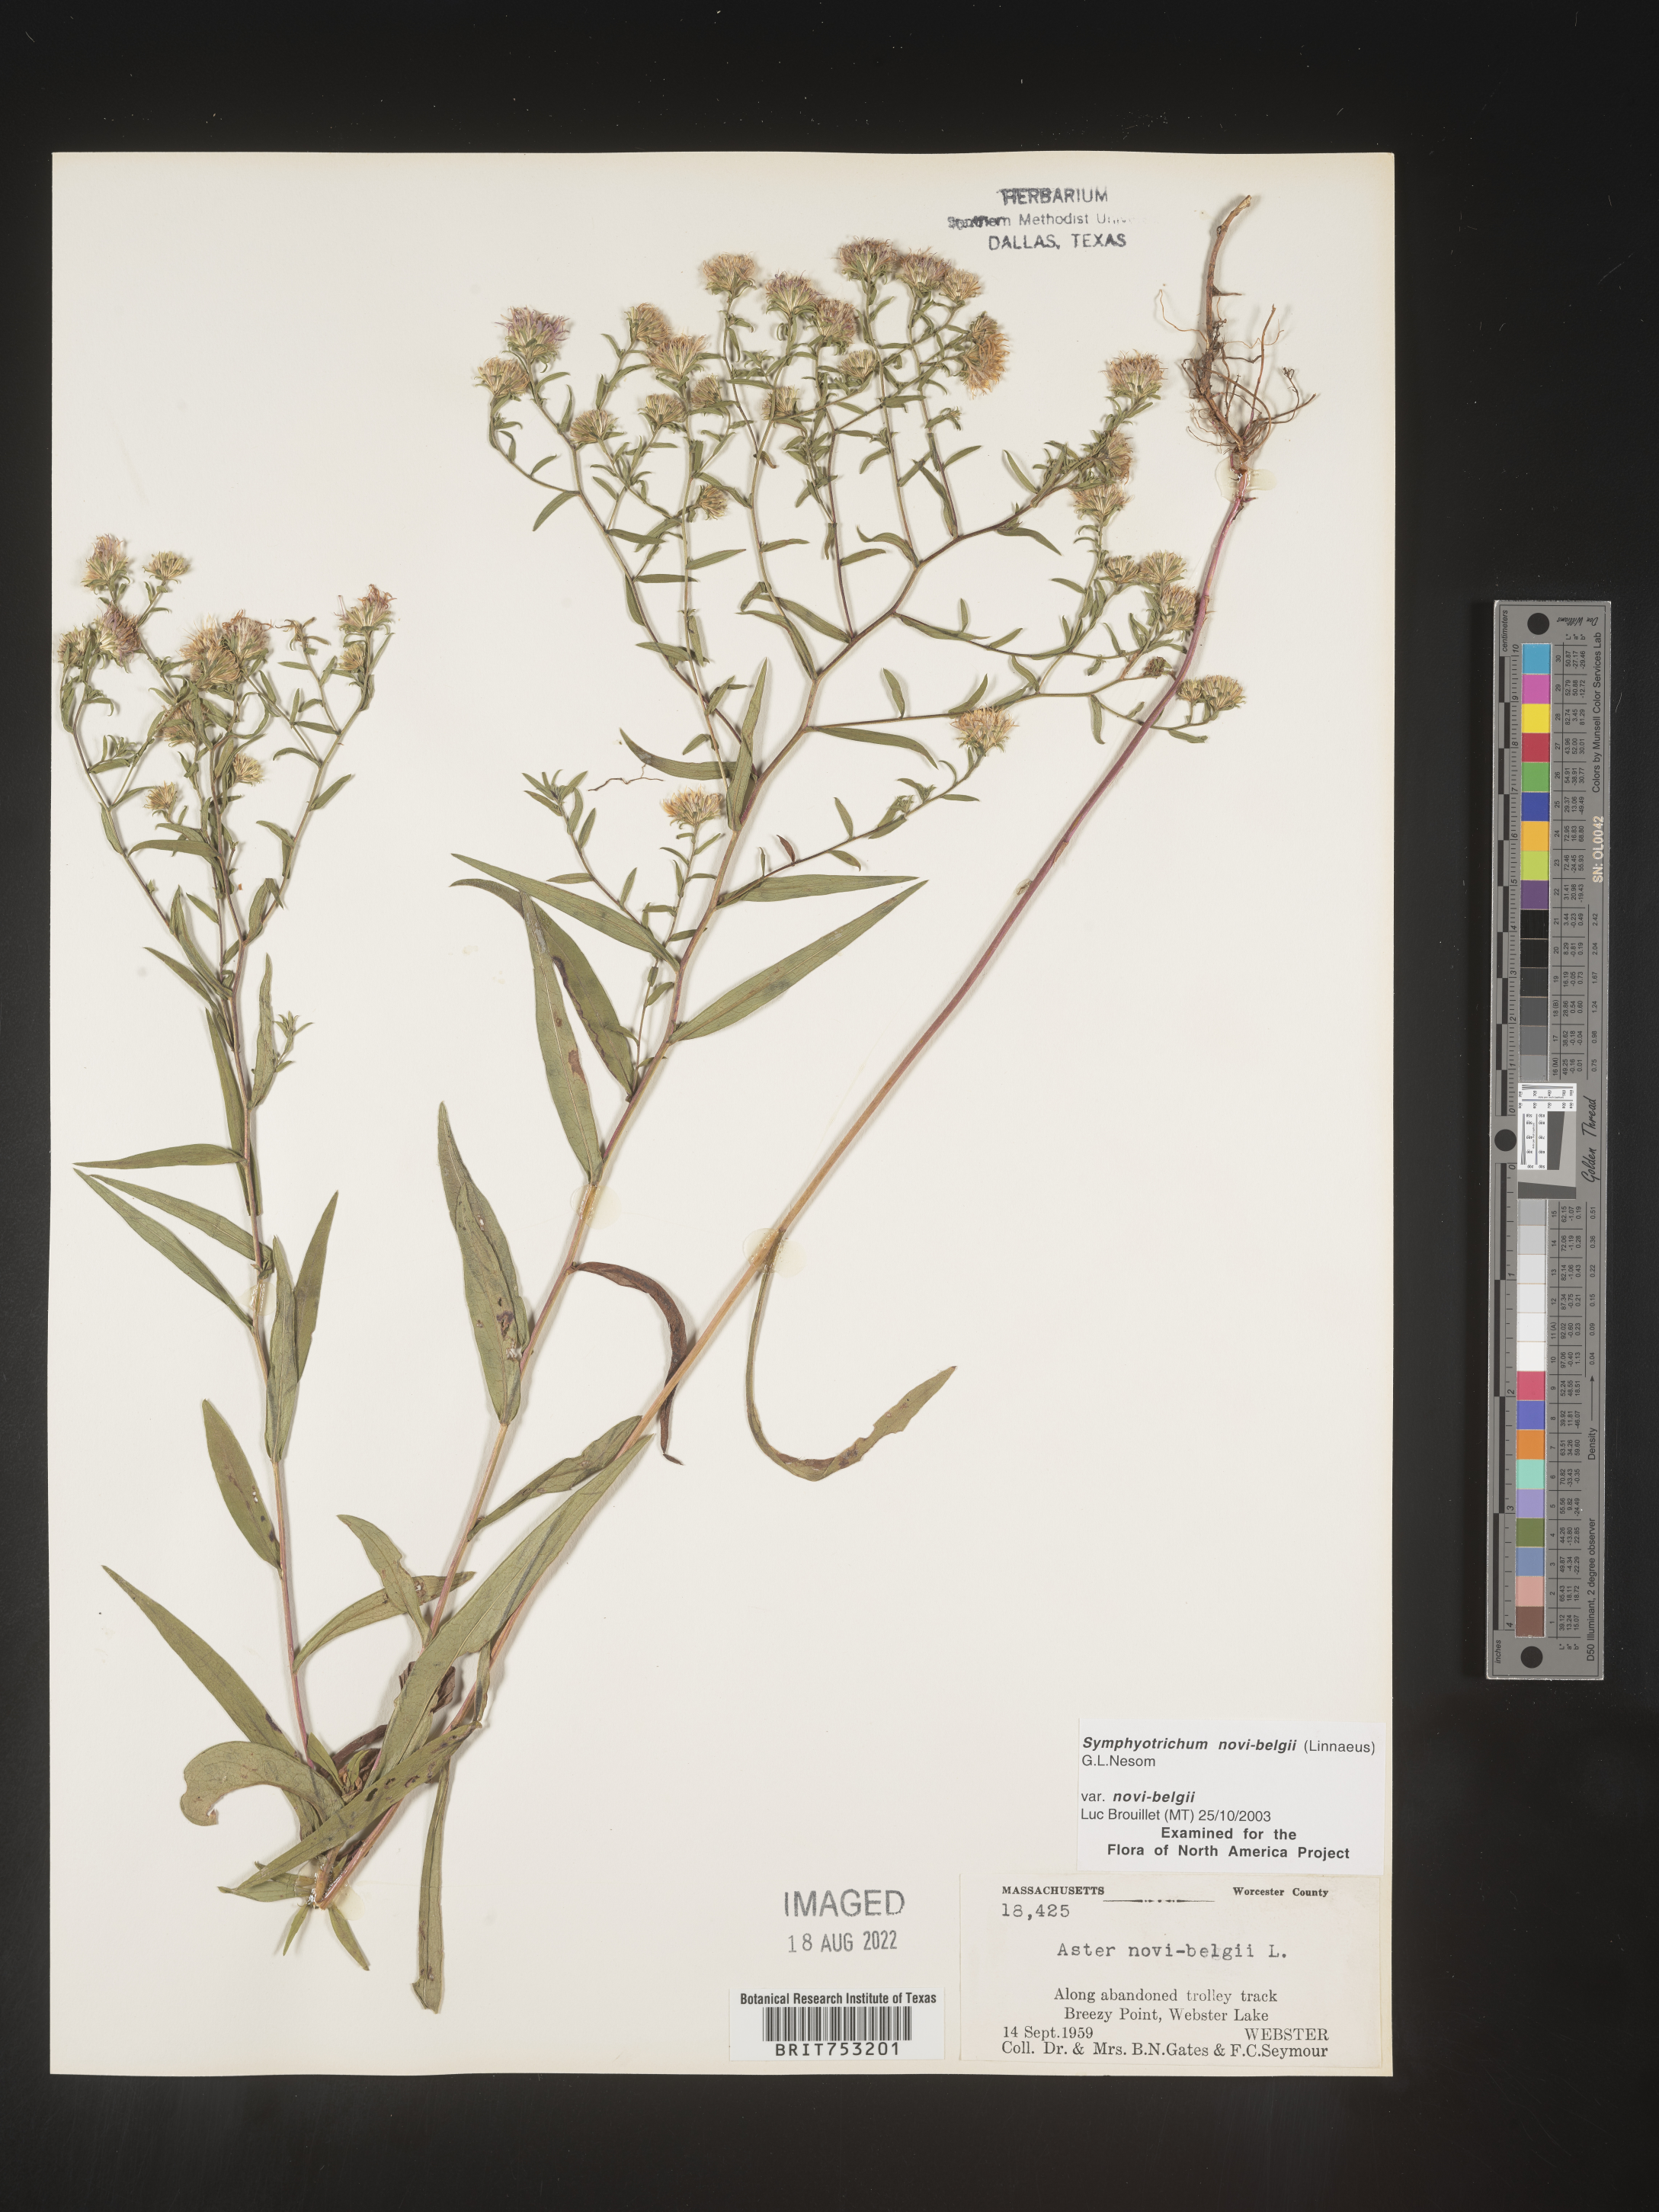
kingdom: Plantae
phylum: Tracheophyta
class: Magnoliopsida
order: Asterales
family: Asteraceae
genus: Symphyotrichum
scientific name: Symphyotrichum novi-belgii
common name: Michaelmas daisy
